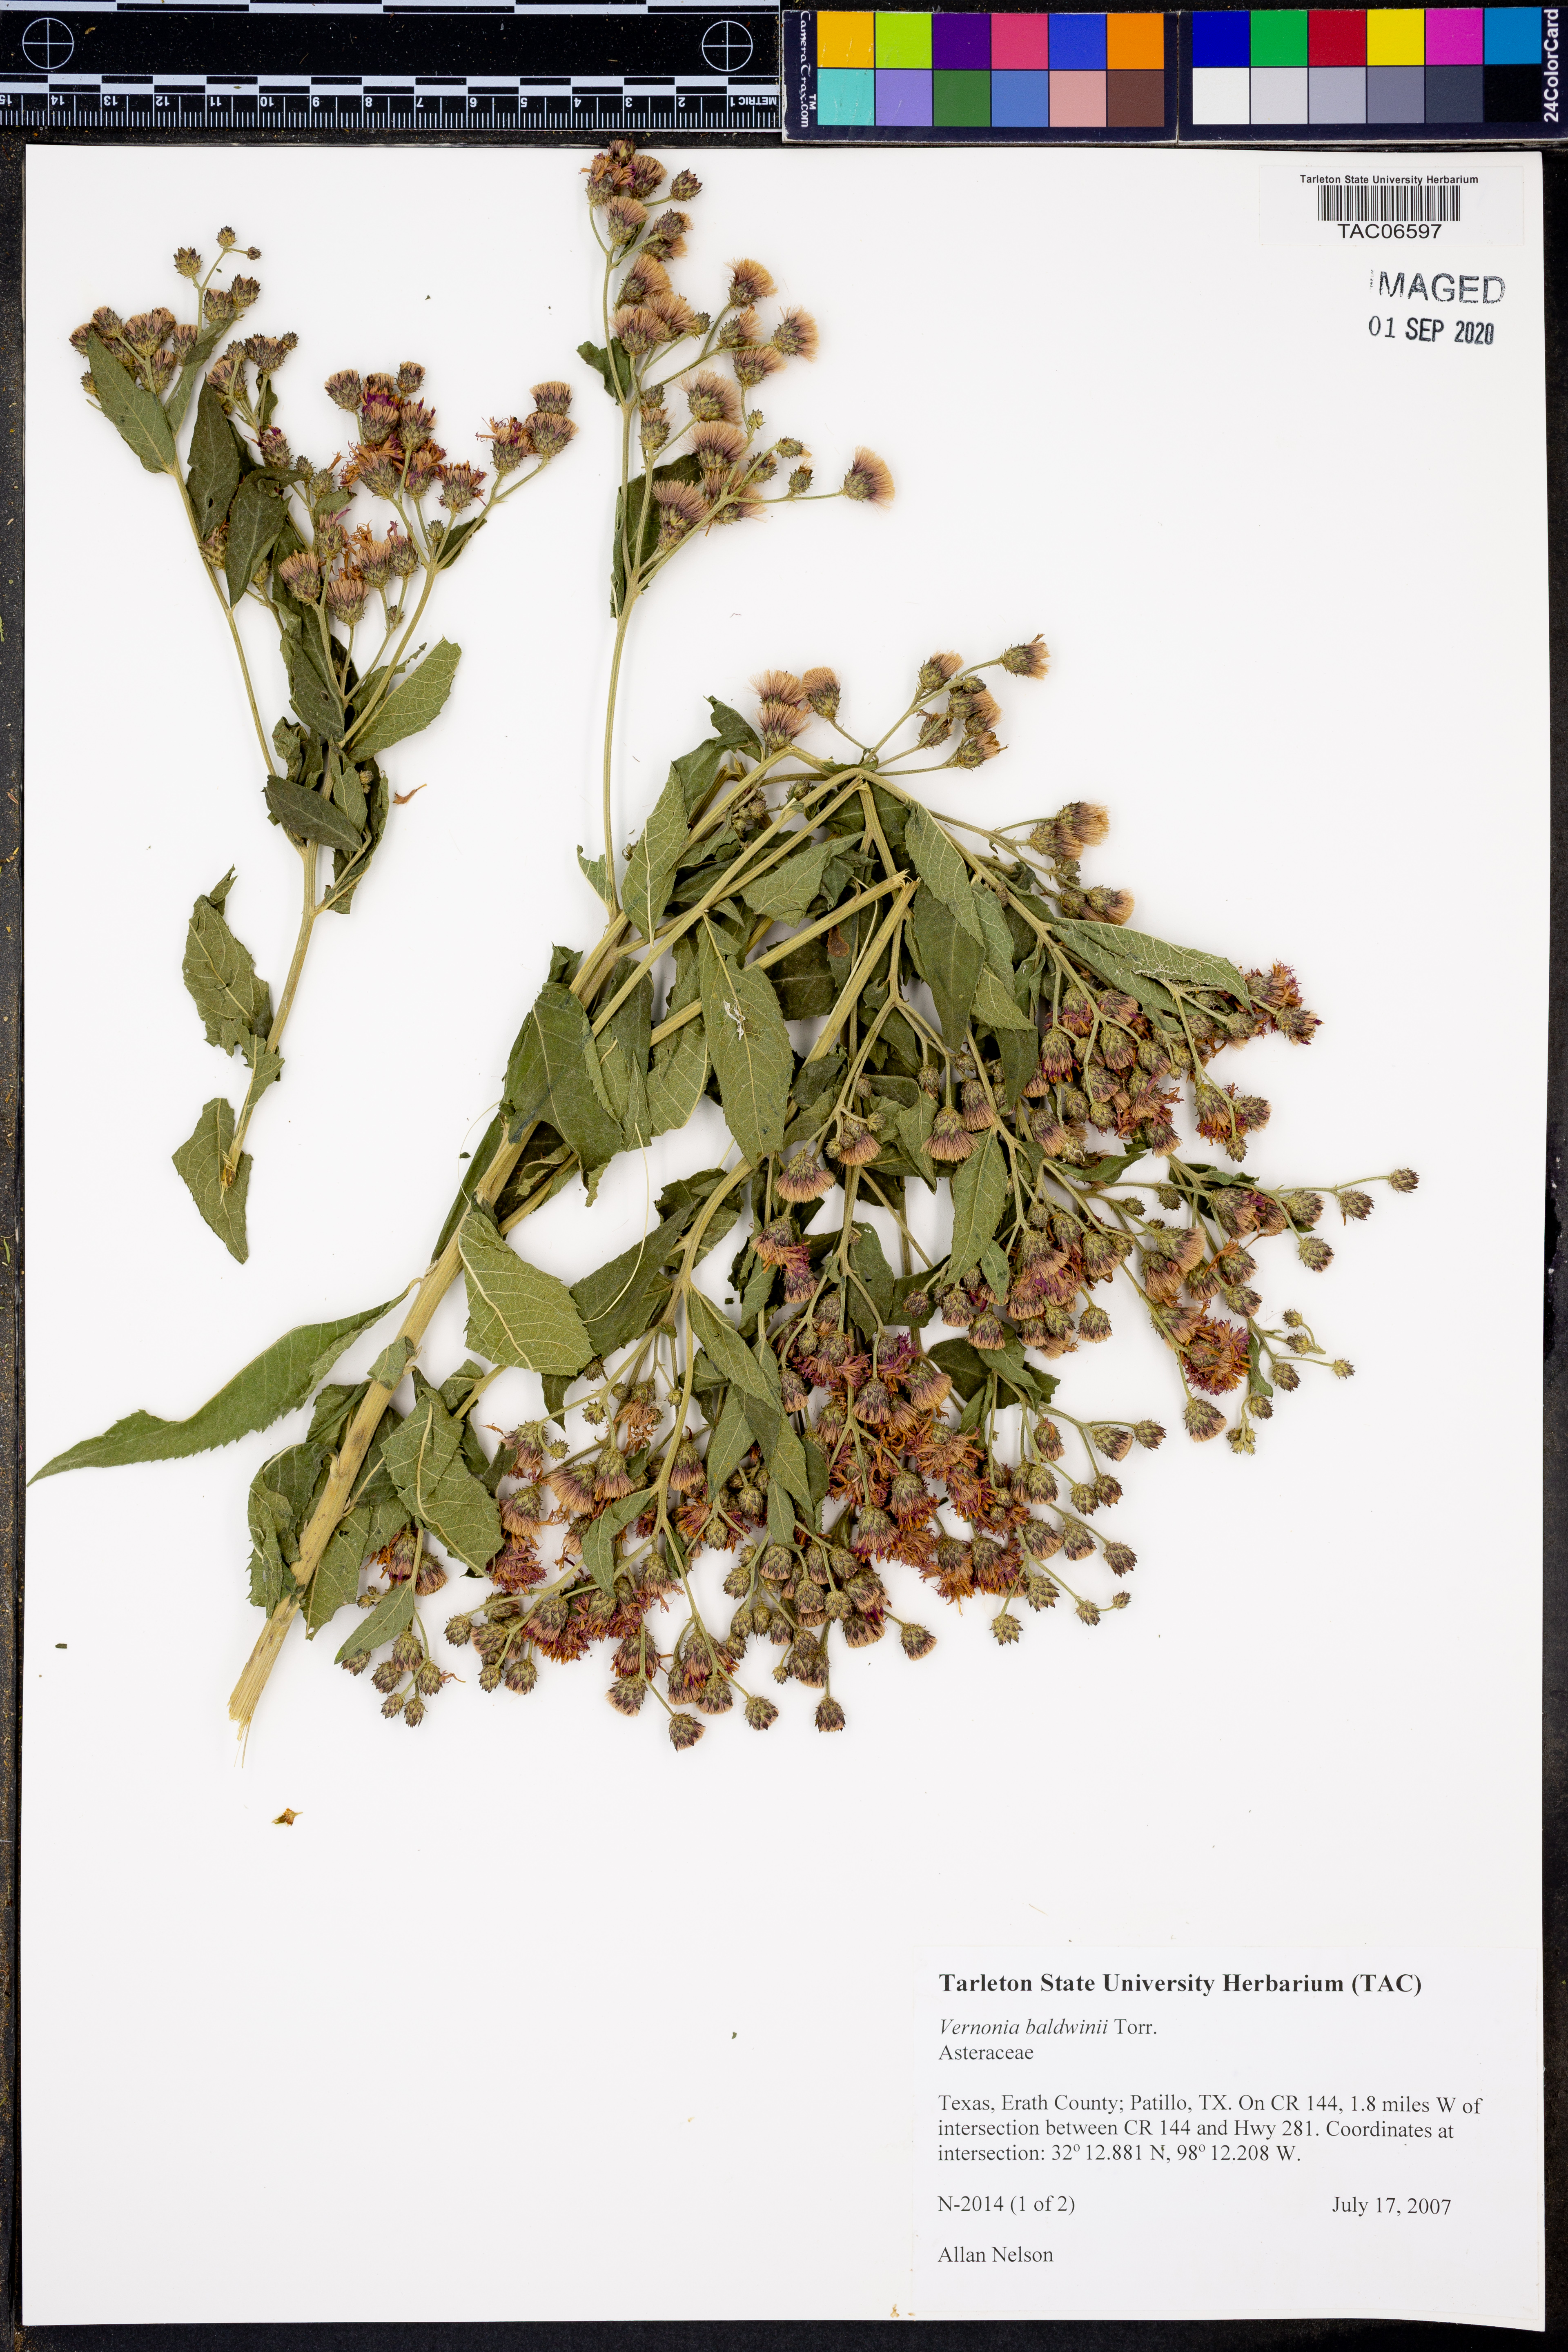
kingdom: Plantae
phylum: Tracheophyta
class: Magnoliopsida
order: Asterales
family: Asteraceae
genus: Vernonia
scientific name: Vernonia baldwinii
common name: Western ironweed
